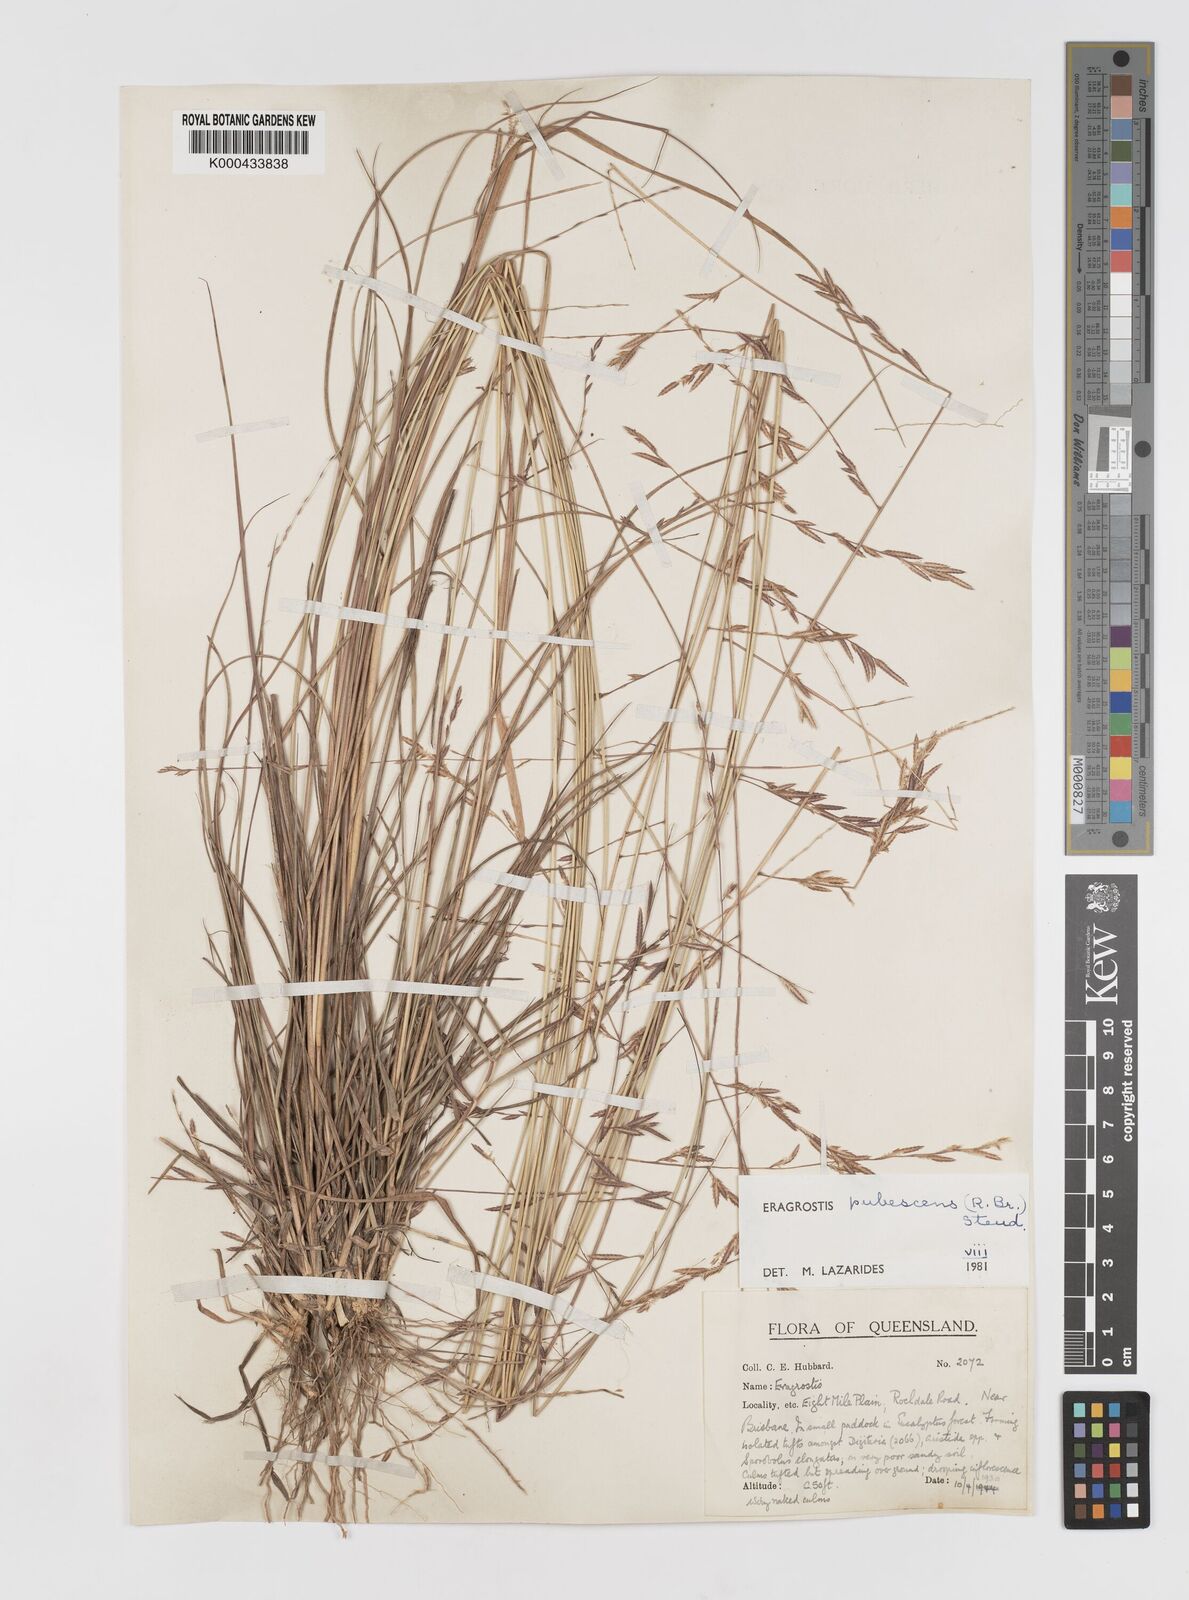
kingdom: Plantae
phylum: Tracheophyta
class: Liliopsida
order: Poales
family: Poaceae
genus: Eragrostis
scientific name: Eragrostis pubescens
